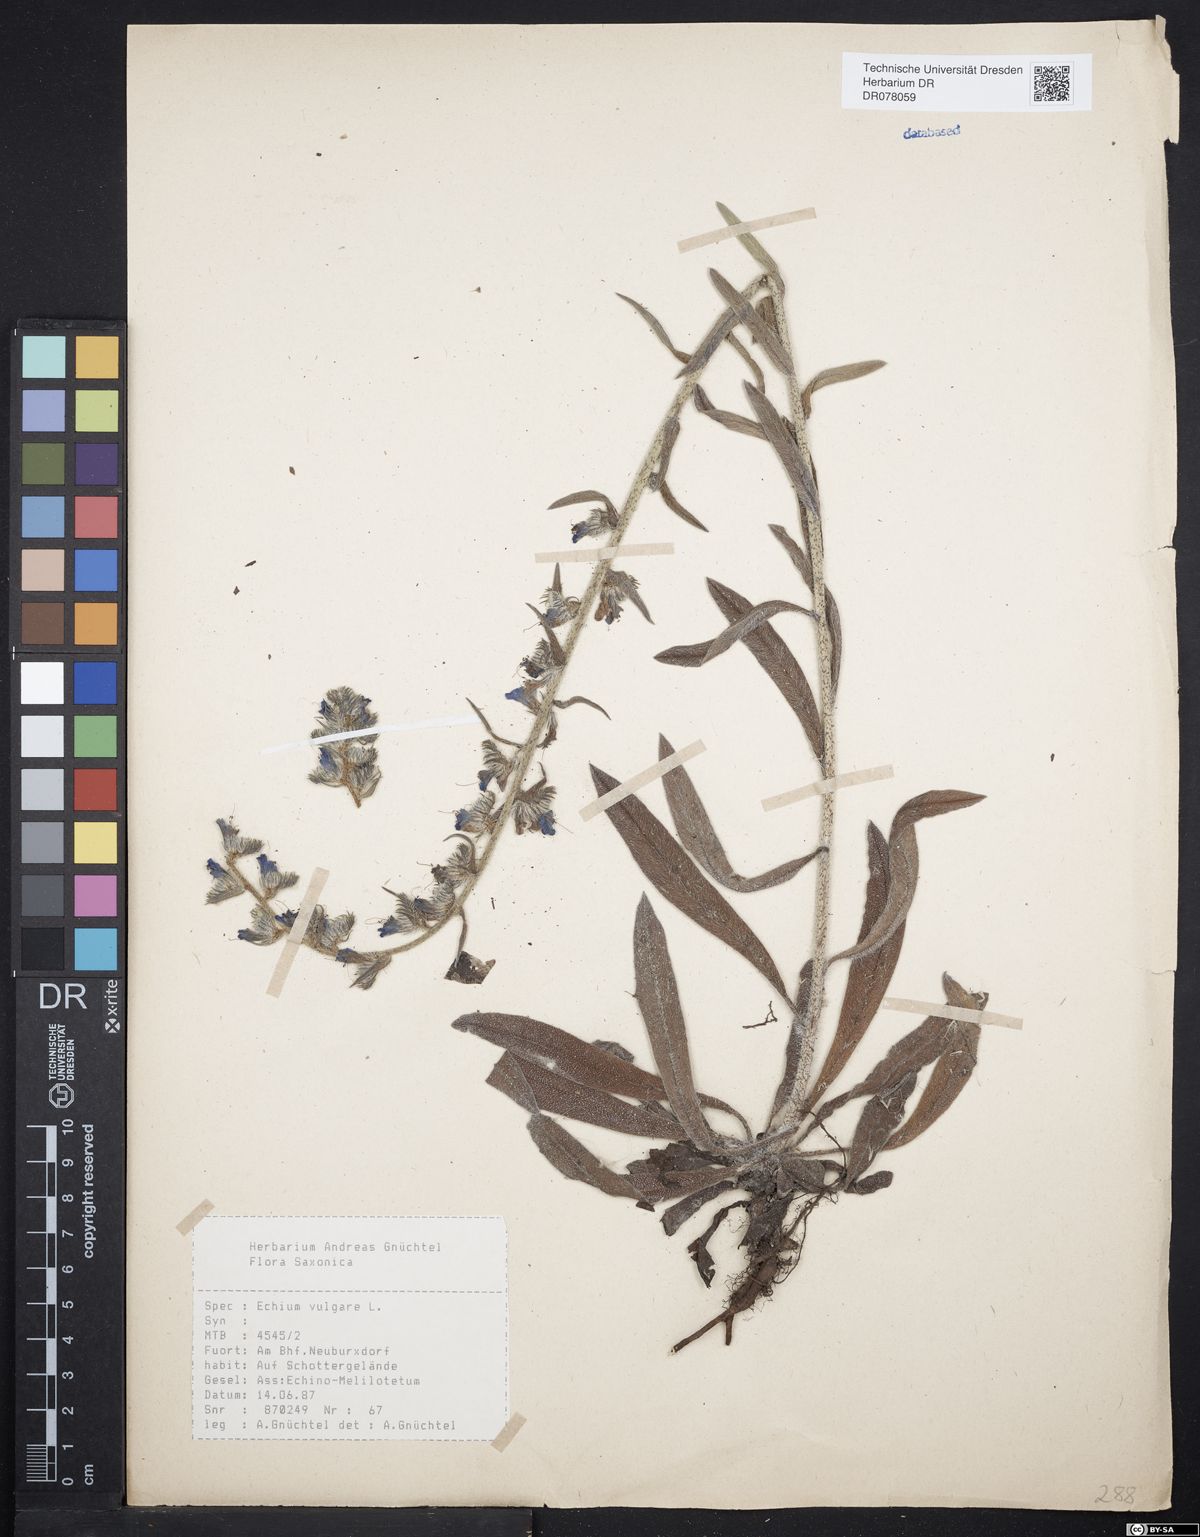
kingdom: Plantae
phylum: Tracheophyta
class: Magnoliopsida
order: Boraginales
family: Boraginaceae
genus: Echium
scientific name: Echium vulgare
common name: Common viper's bugloss
